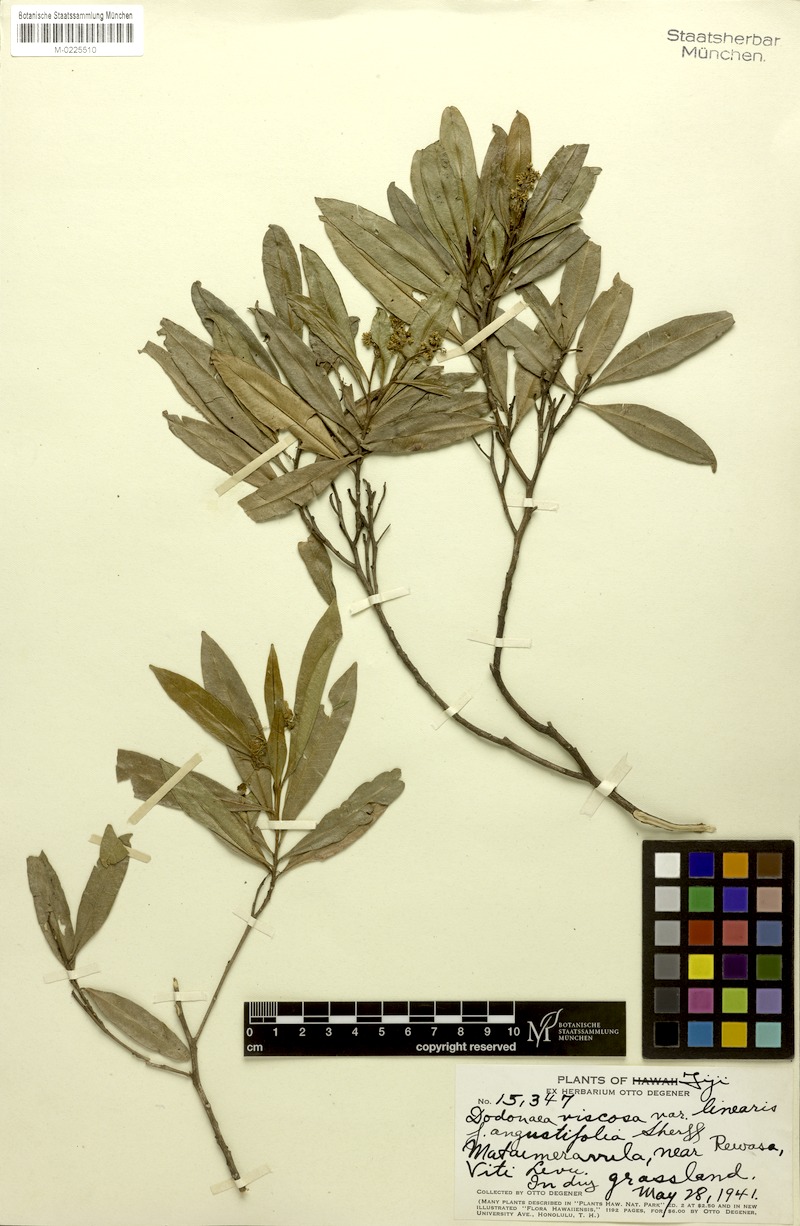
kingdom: Plantae
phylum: Tracheophyta
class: Magnoliopsida
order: Sapindales
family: Sapindaceae
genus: Dodonaea
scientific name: Dodonaea viscosa
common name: Hopbush
